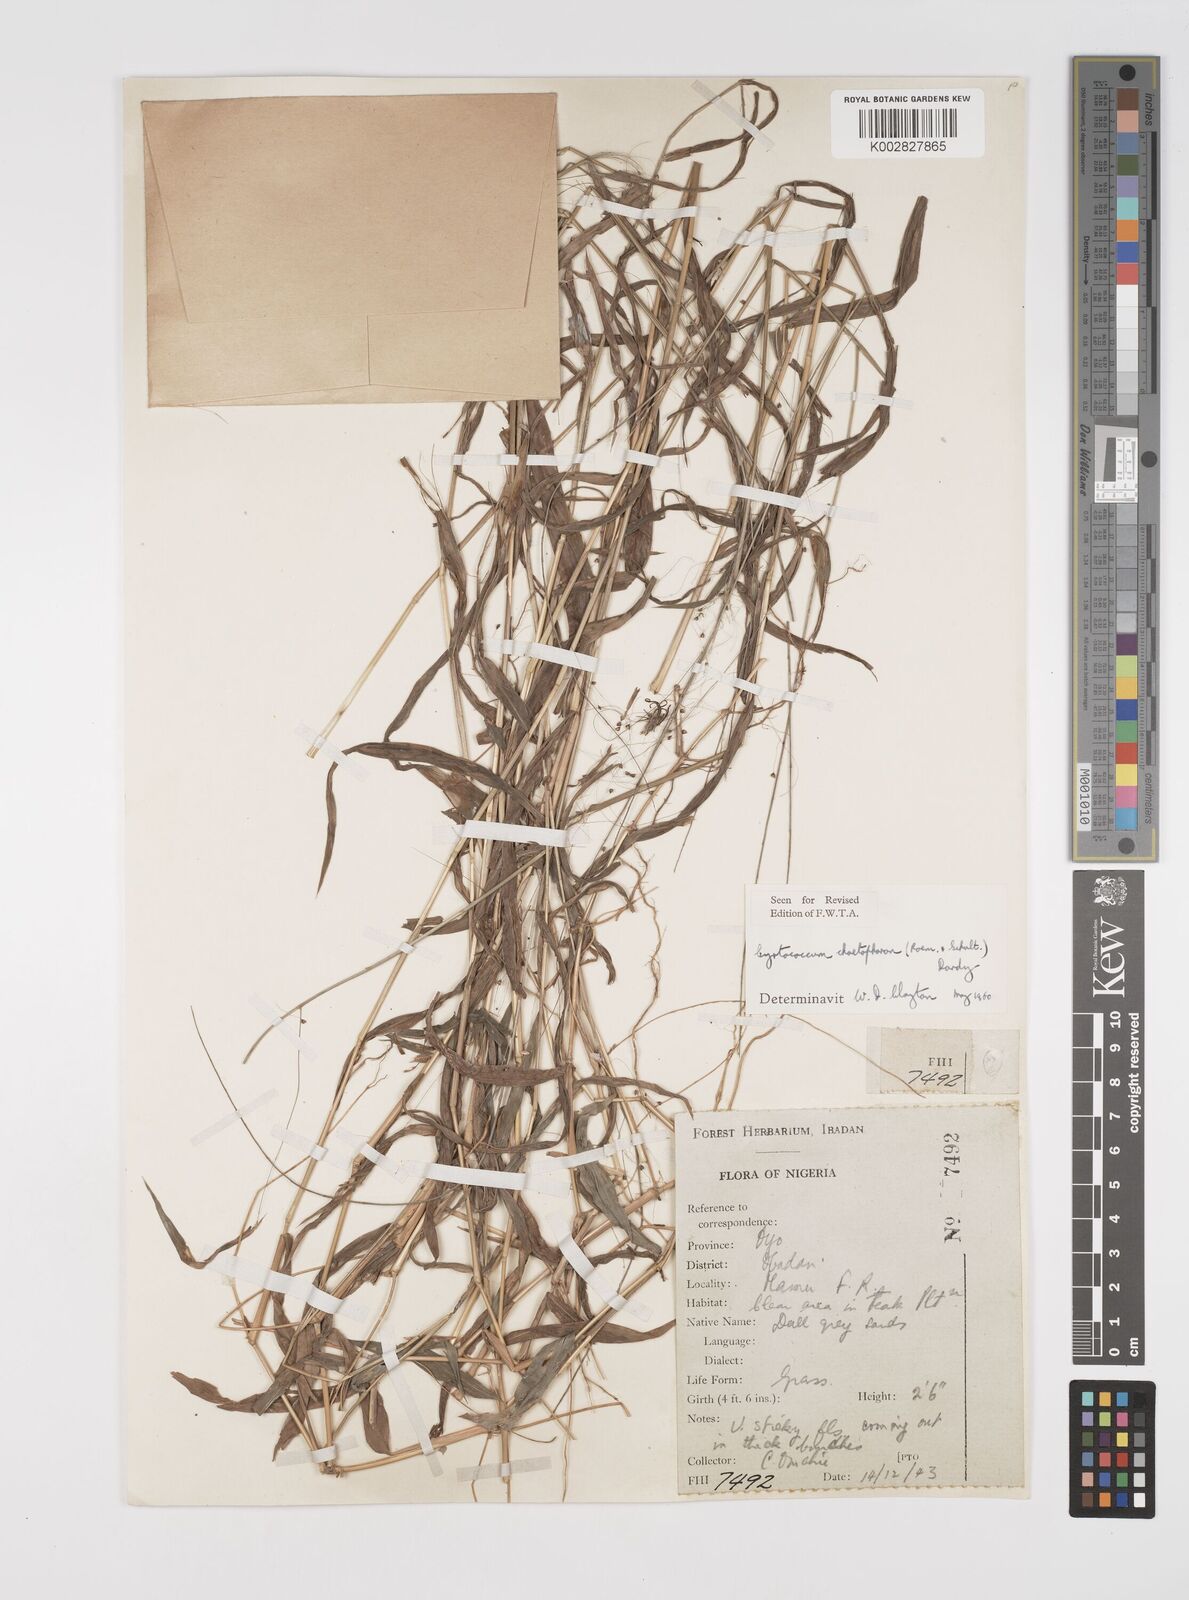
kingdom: Plantae
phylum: Tracheophyta
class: Liliopsida
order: Poales
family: Poaceae
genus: Cyrtococcum
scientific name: Cyrtococcum chaetophoron
